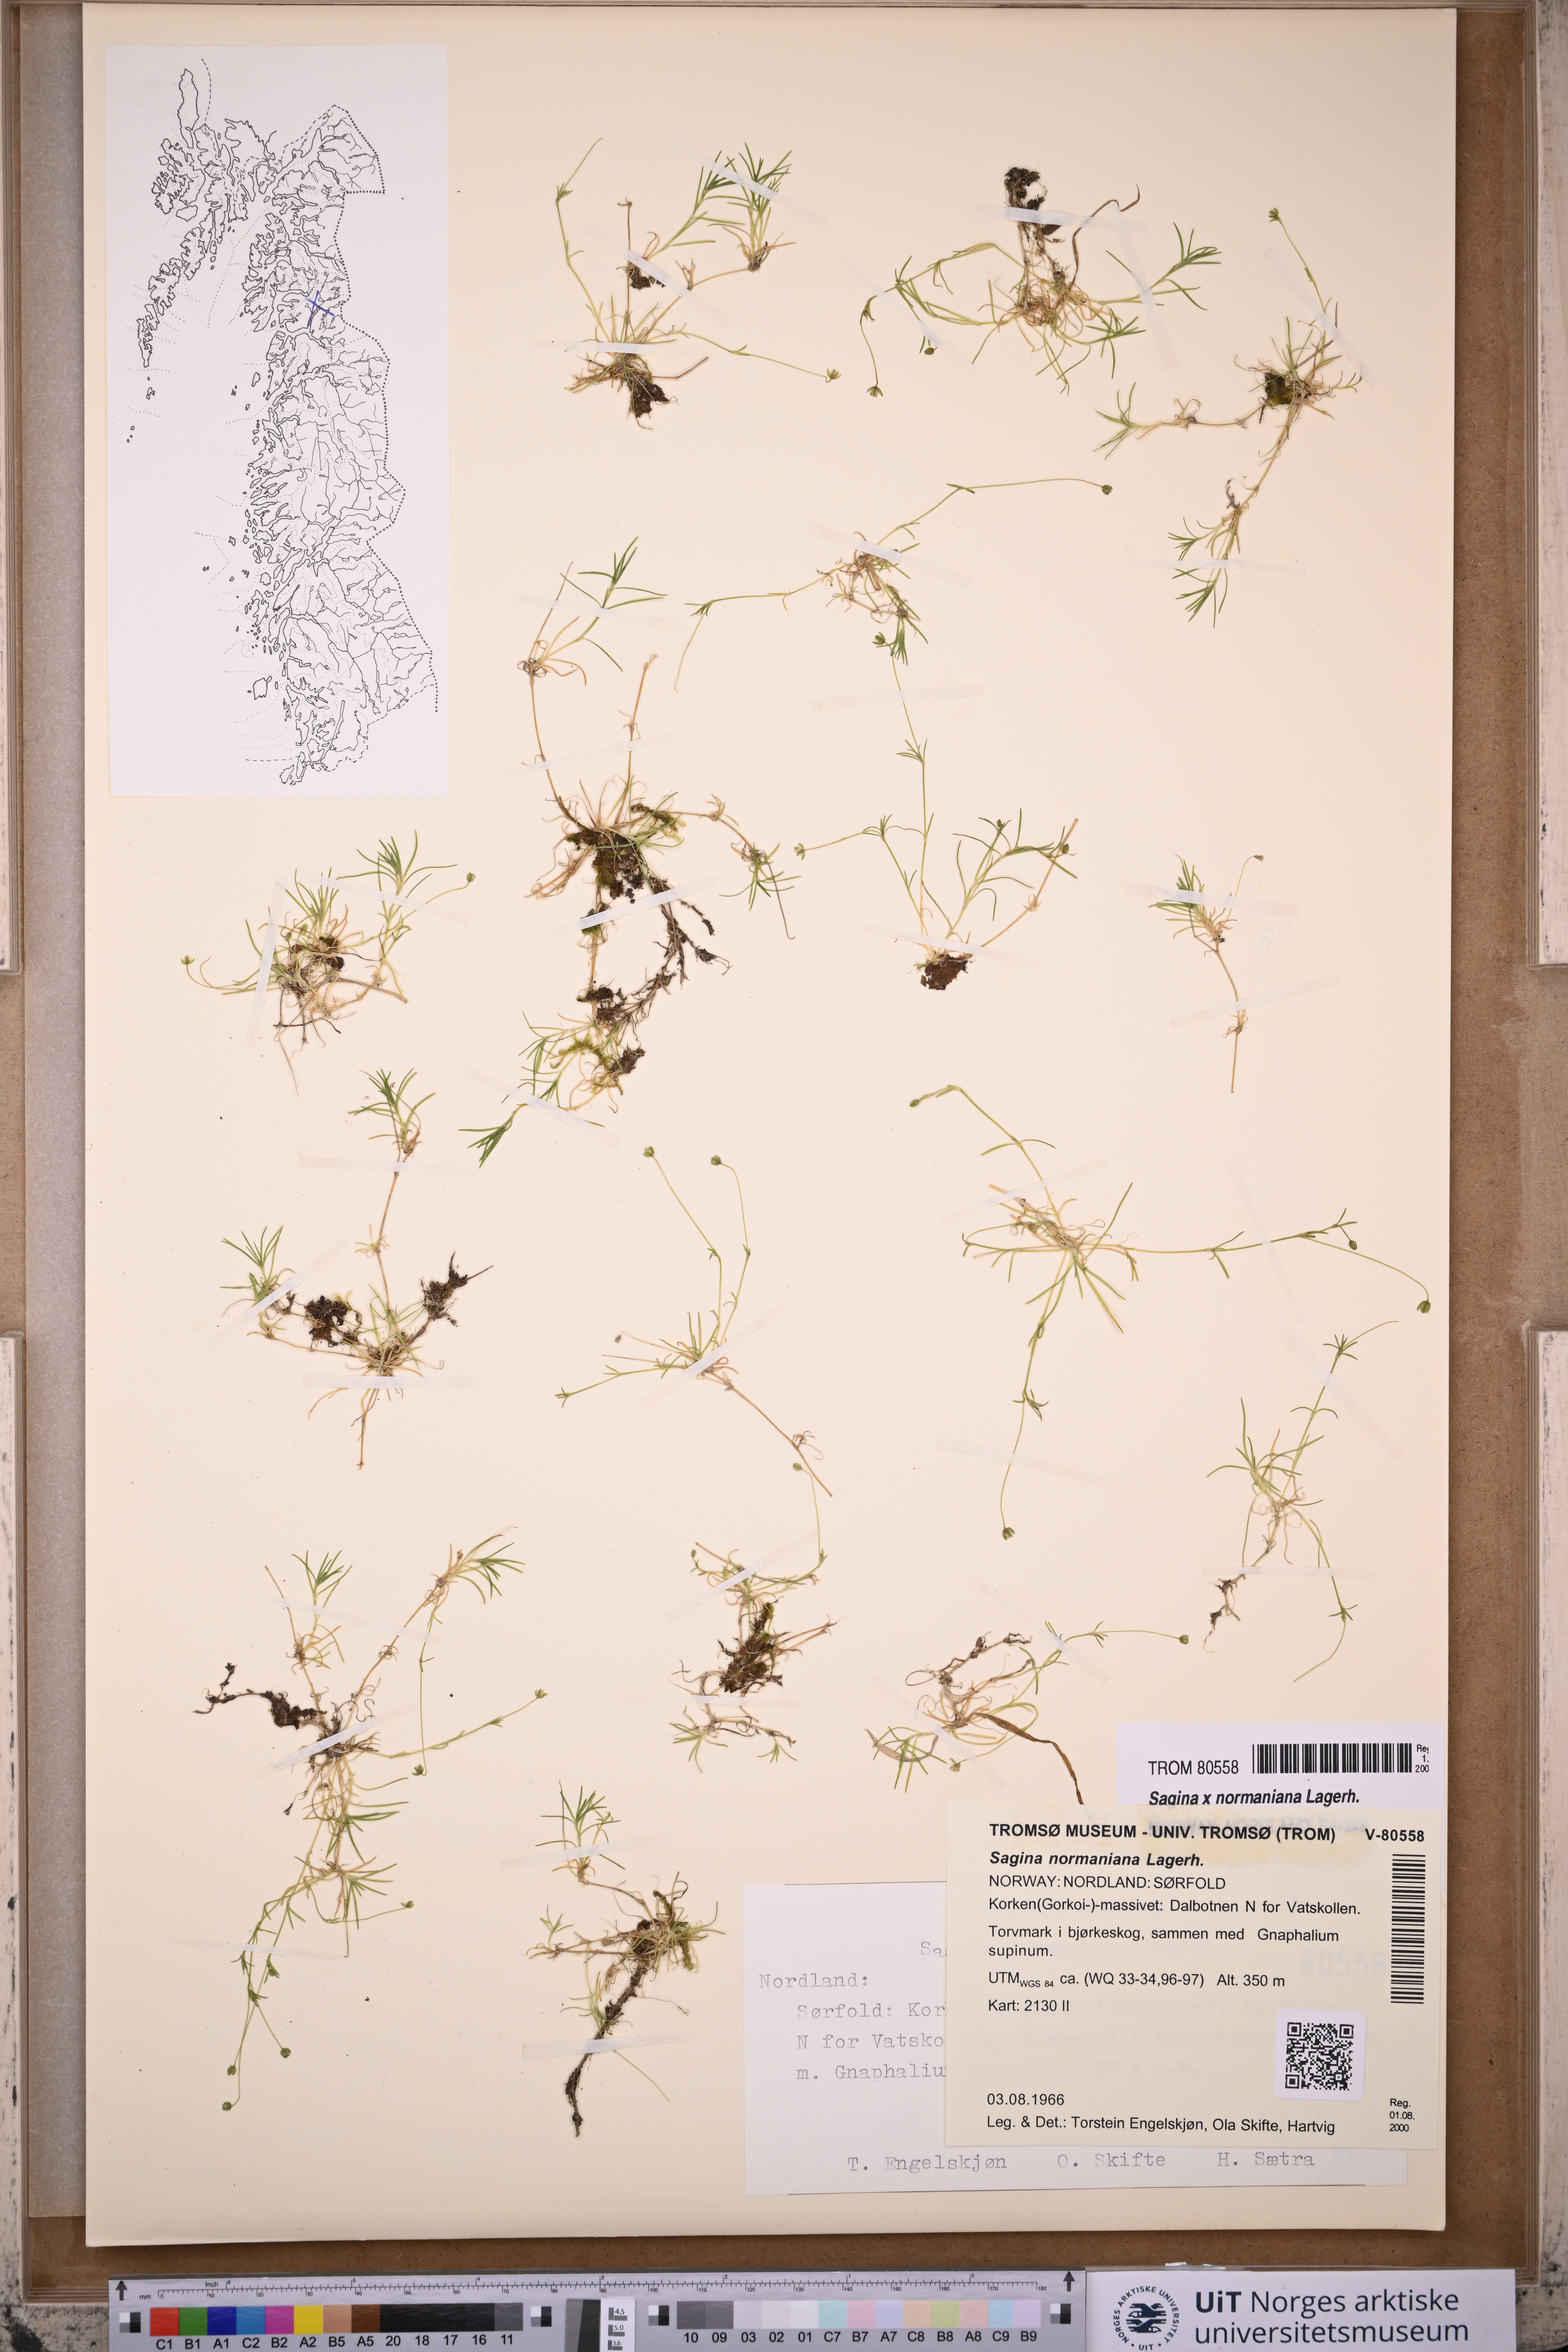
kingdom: Plantae
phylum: Tracheophyta
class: Magnoliopsida
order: Caryophyllales
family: Caryophyllaceae
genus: Sagina
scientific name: Sagina media
